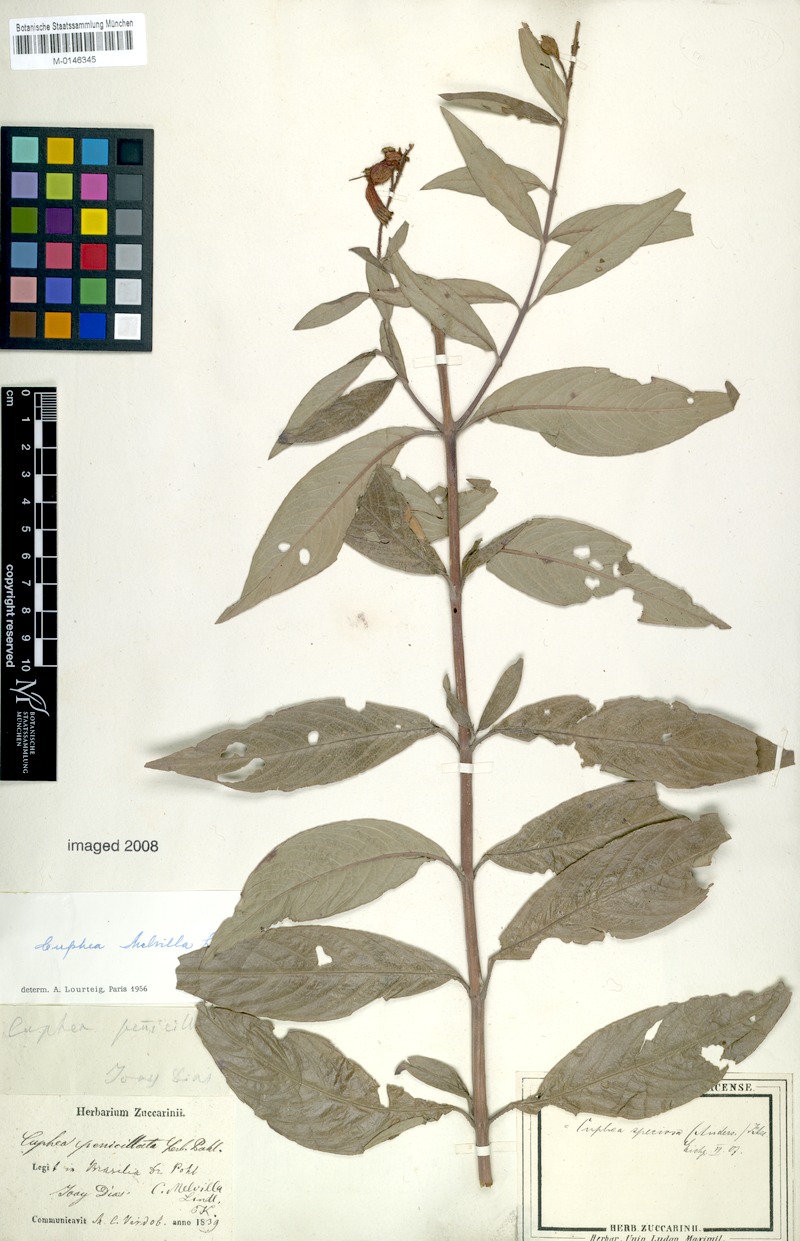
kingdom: Plantae
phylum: Tracheophyta
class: Magnoliopsida
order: Myrtales
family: Lythraceae
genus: Cuphea
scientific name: Cuphea melvilla
